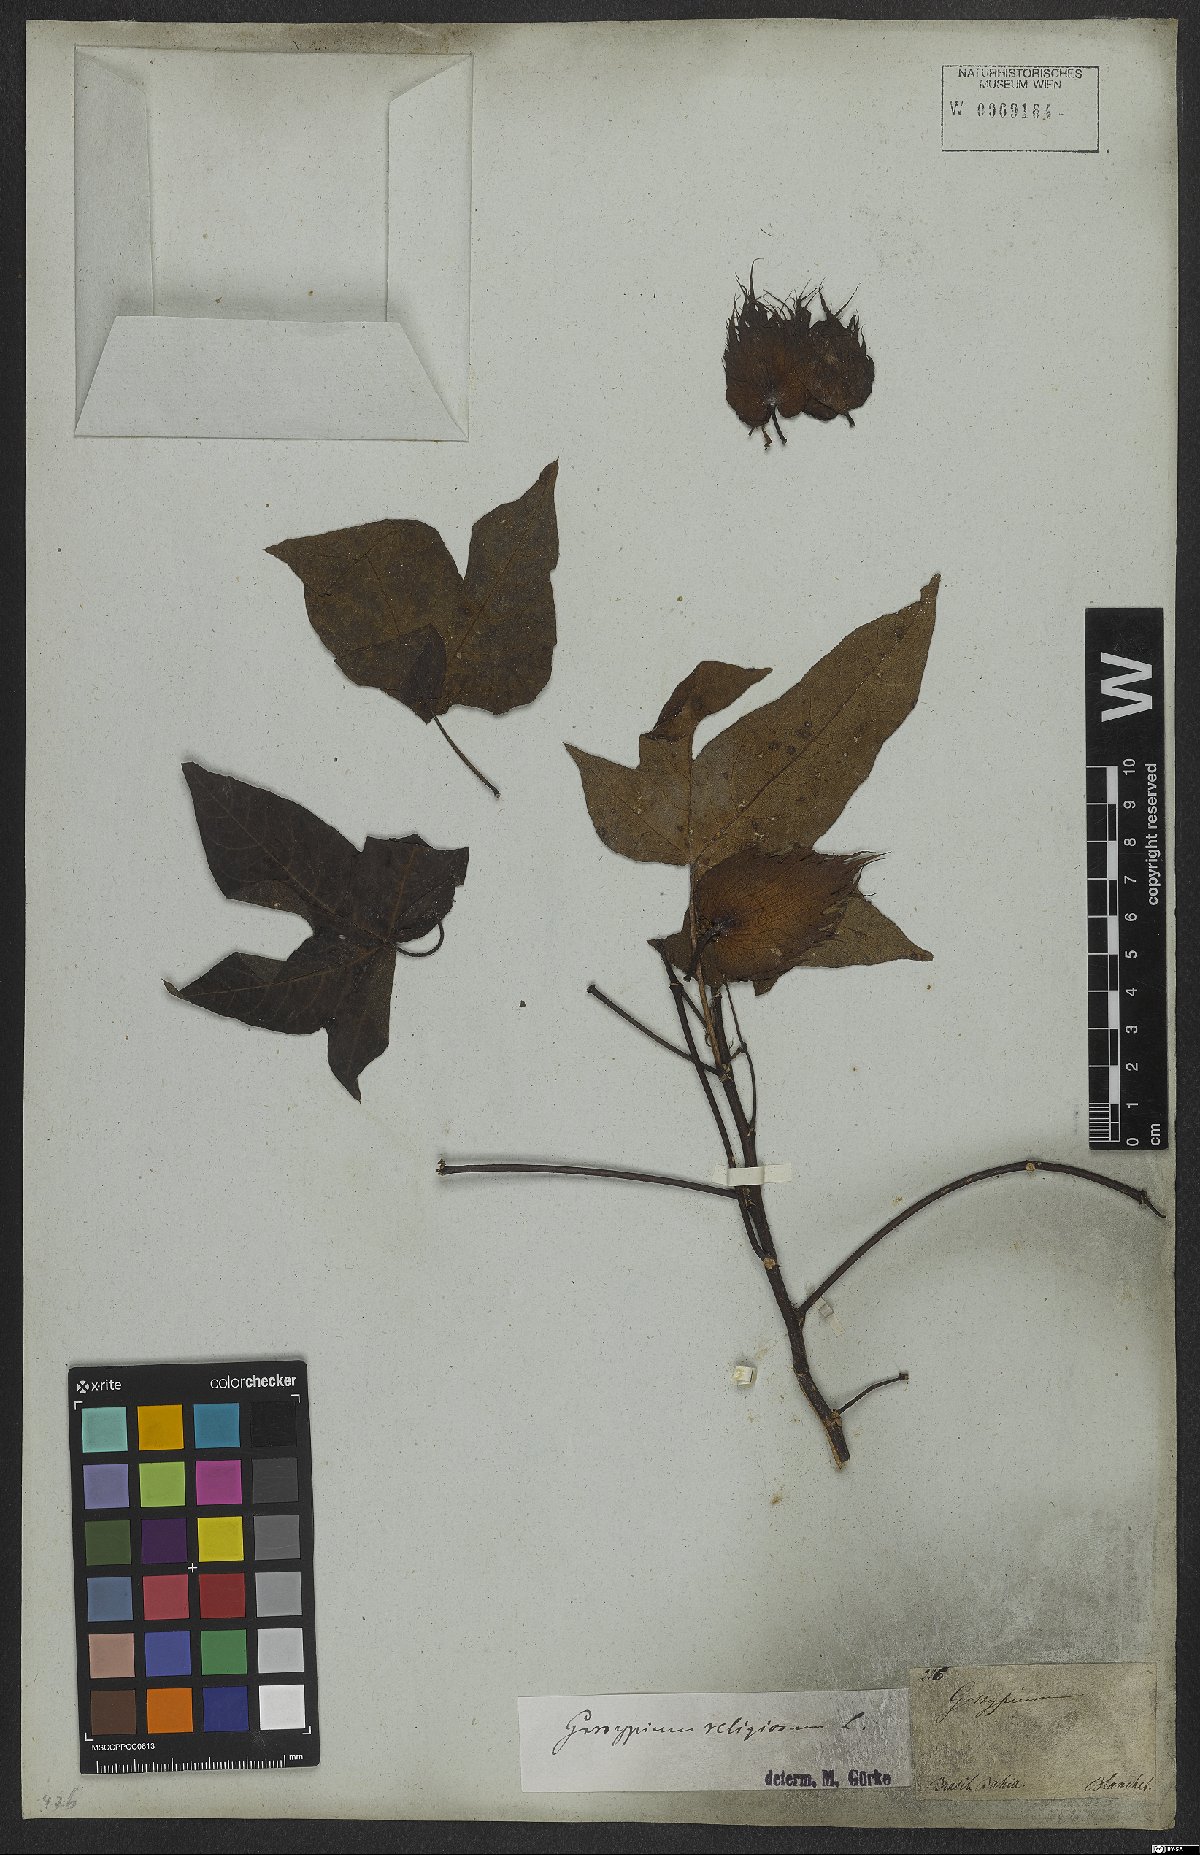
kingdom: Plantae
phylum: Tracheophyta
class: Magnoliopsida
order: Malvales
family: Malvaceae
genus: Gossypium
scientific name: Gossypium hirsutum
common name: Cotton
